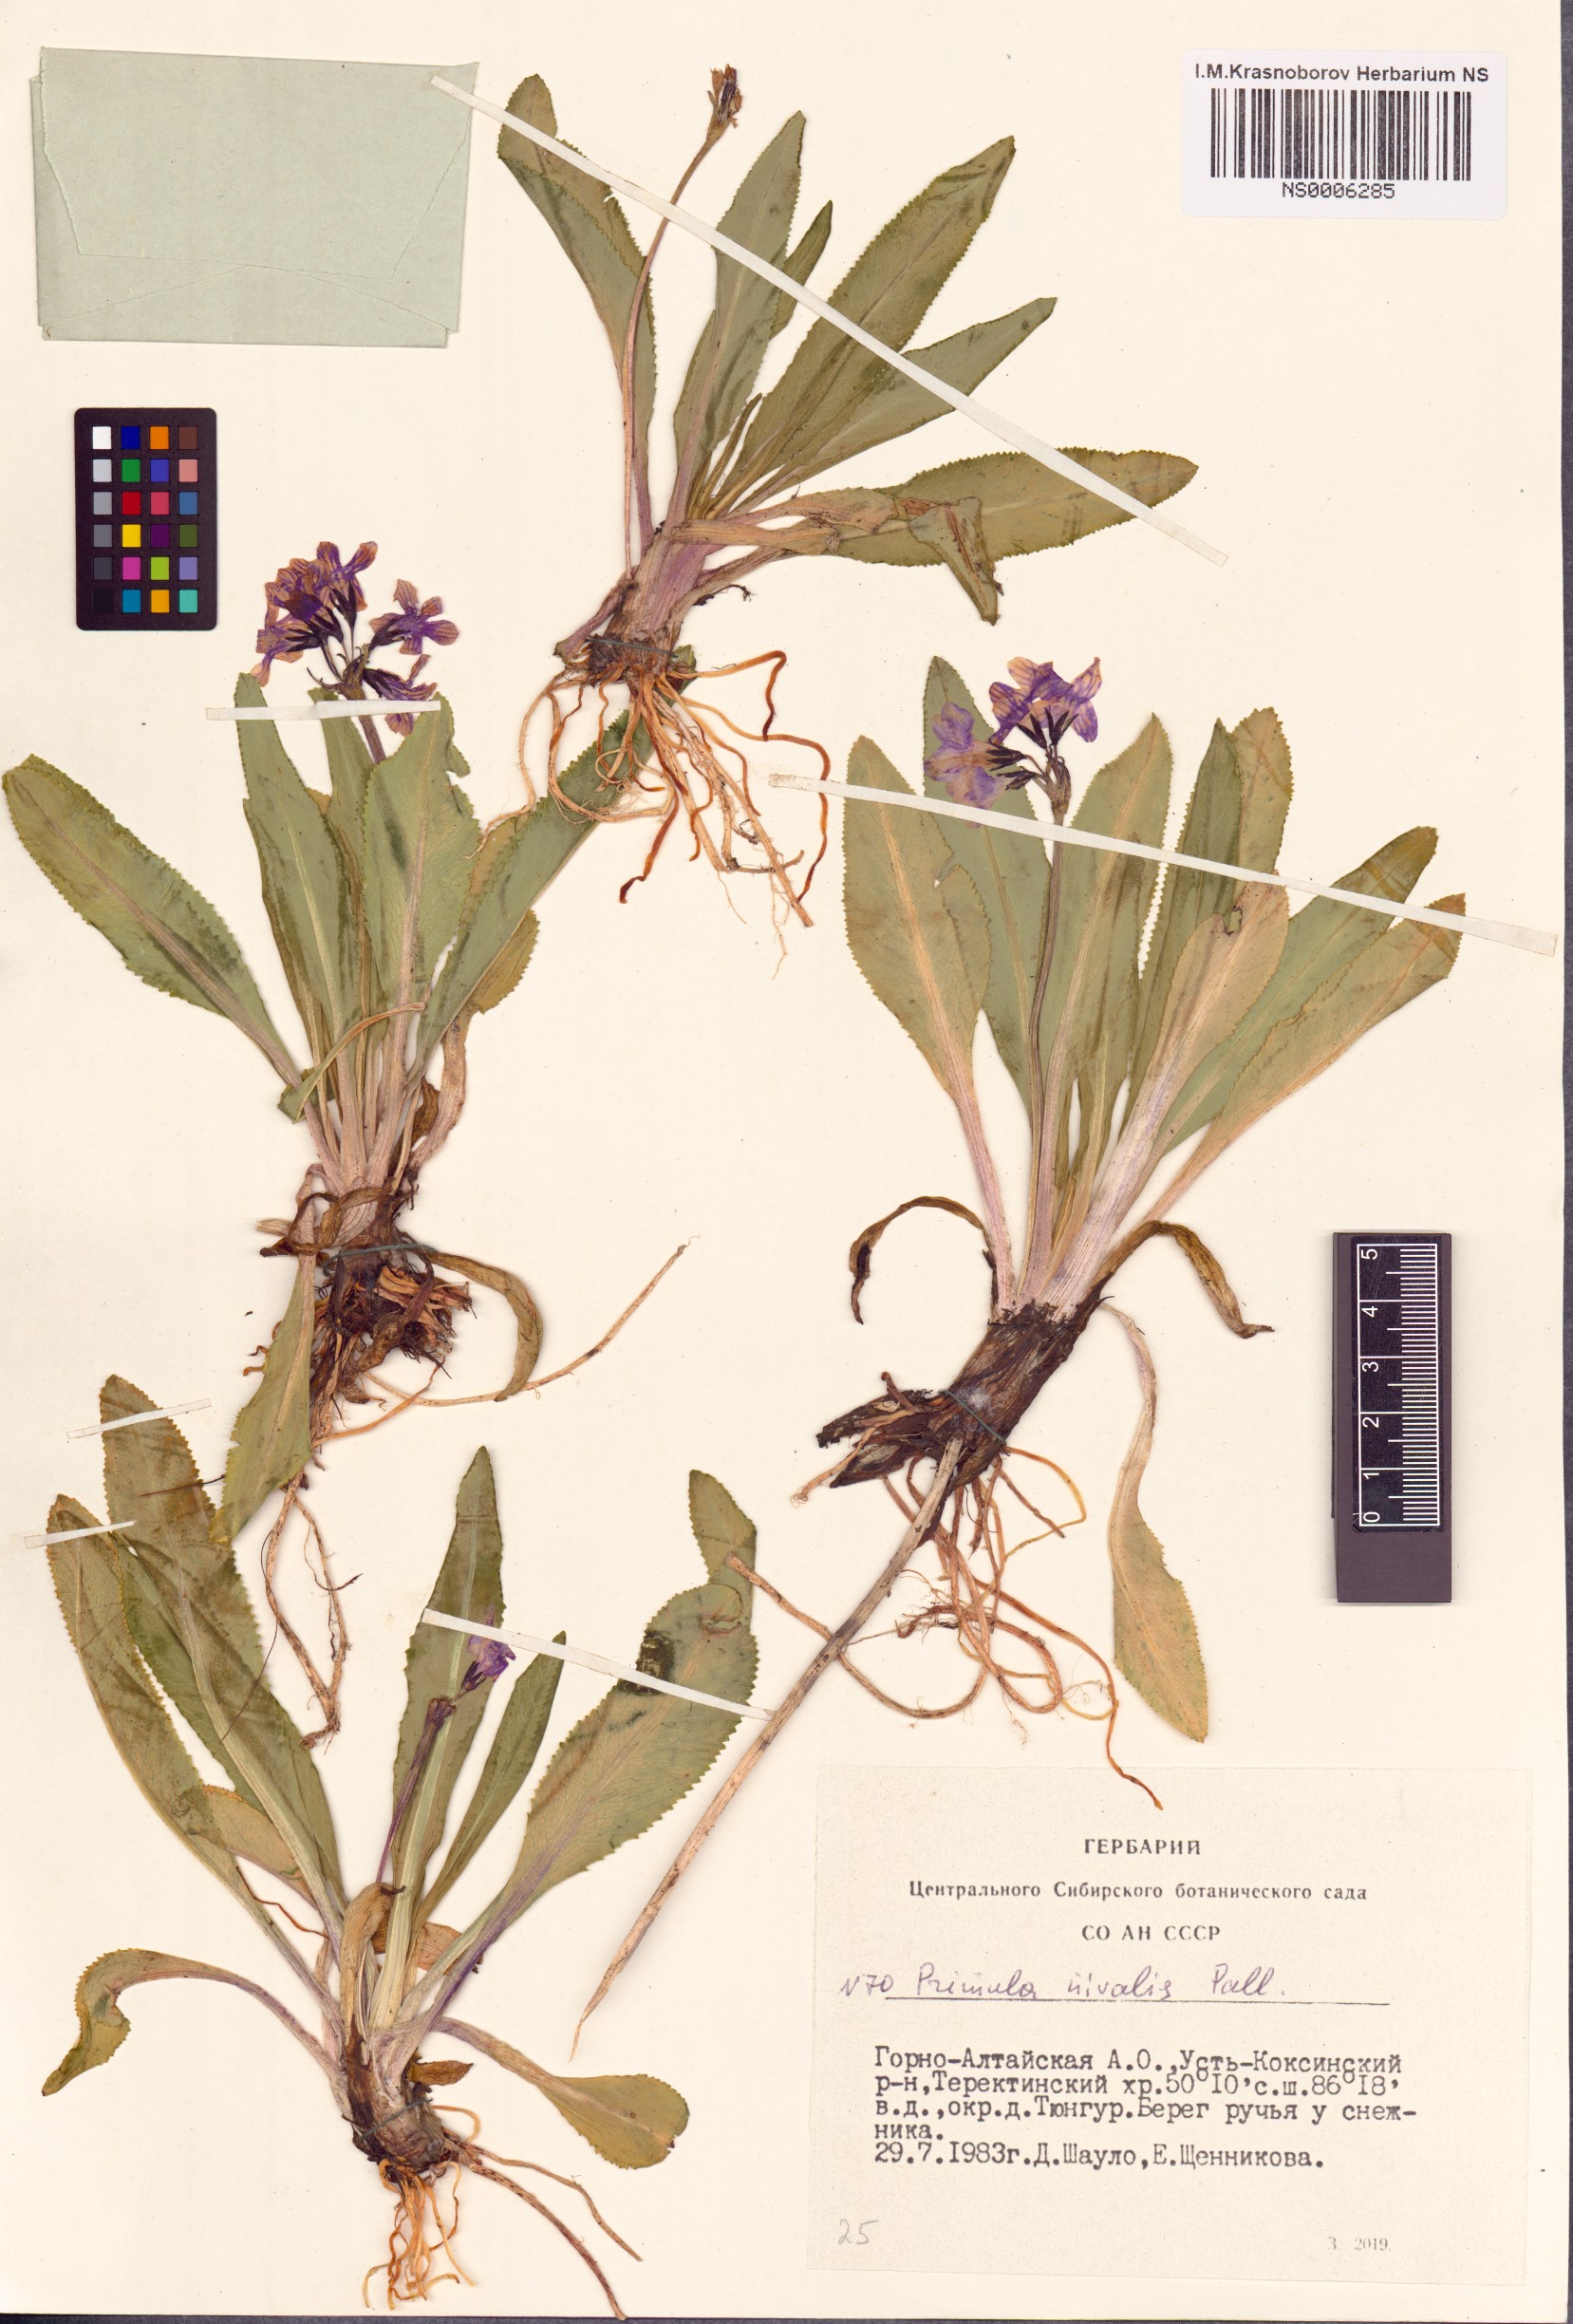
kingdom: Plantae
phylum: Tracheophyta
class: Magnoliopsida
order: Ericales
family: Primulaceae
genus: Primula
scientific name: Primula nivalis
